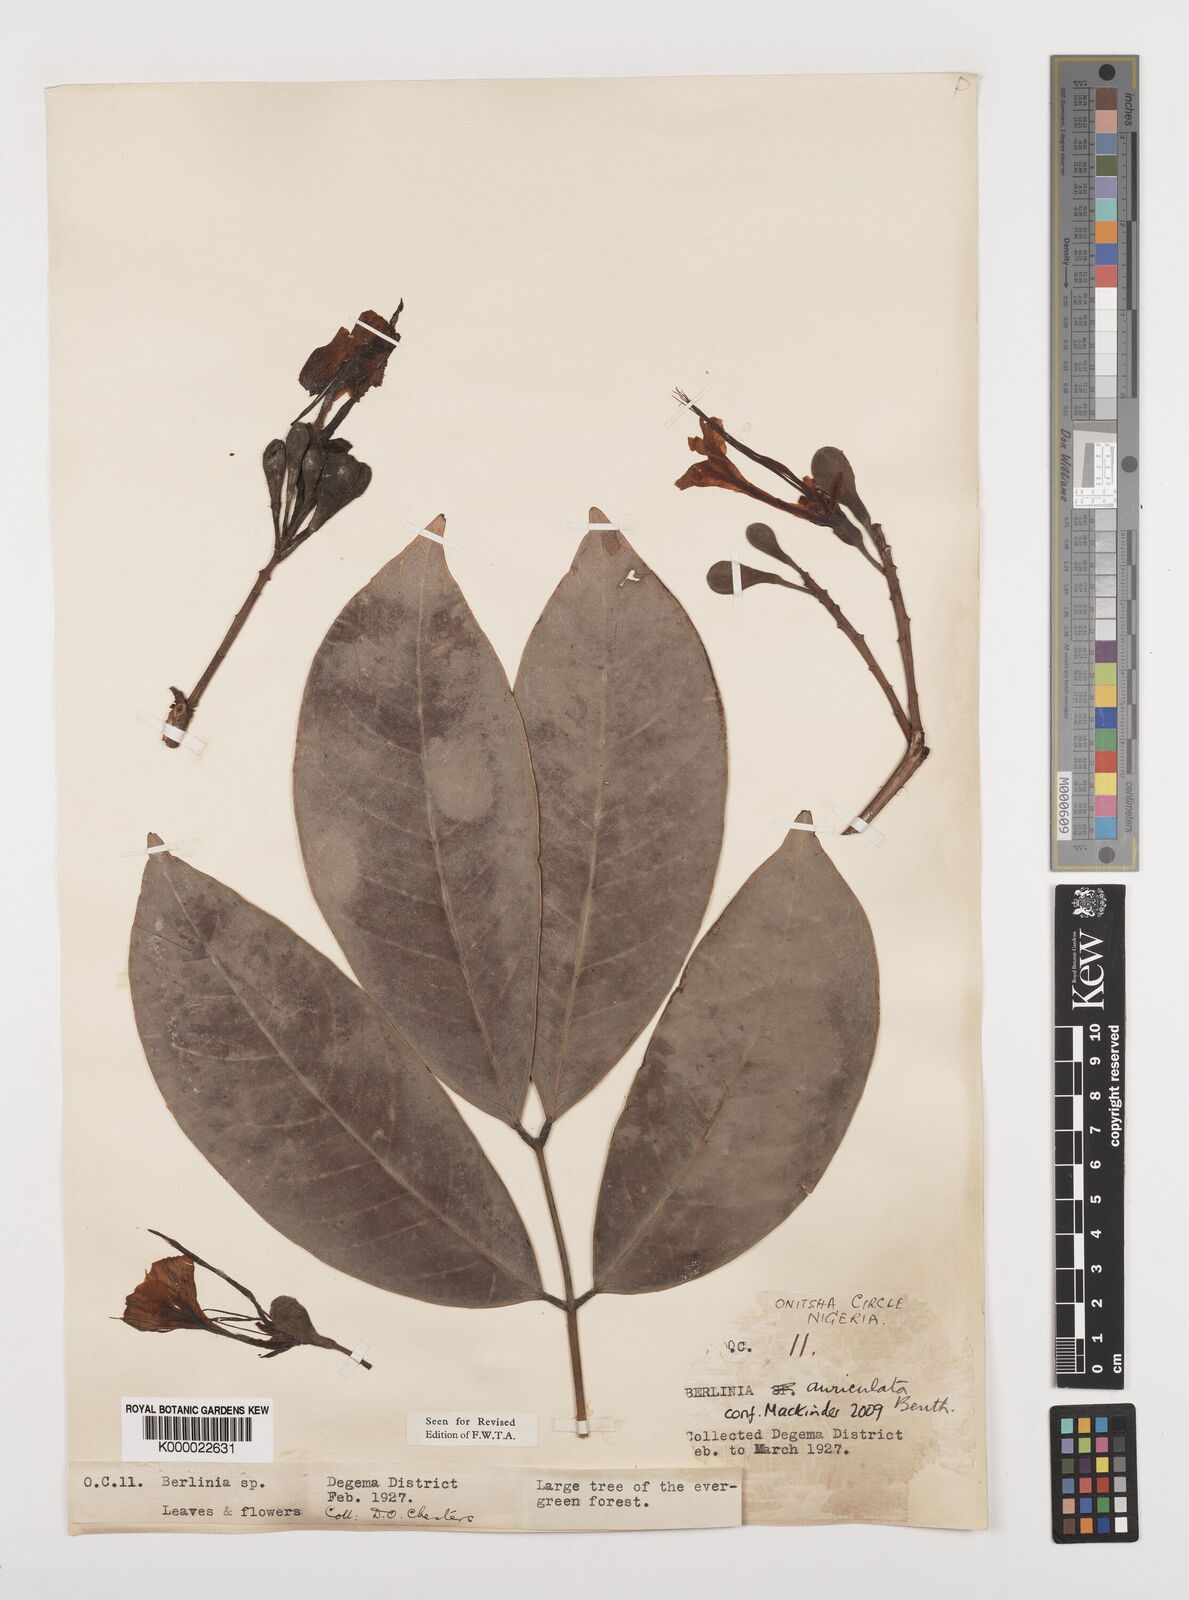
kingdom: Plantae
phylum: Tracheophyta
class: Magnoliopsida
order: Fabales
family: Fabaceae
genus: Berlinia
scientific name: Berlinia auriculata
